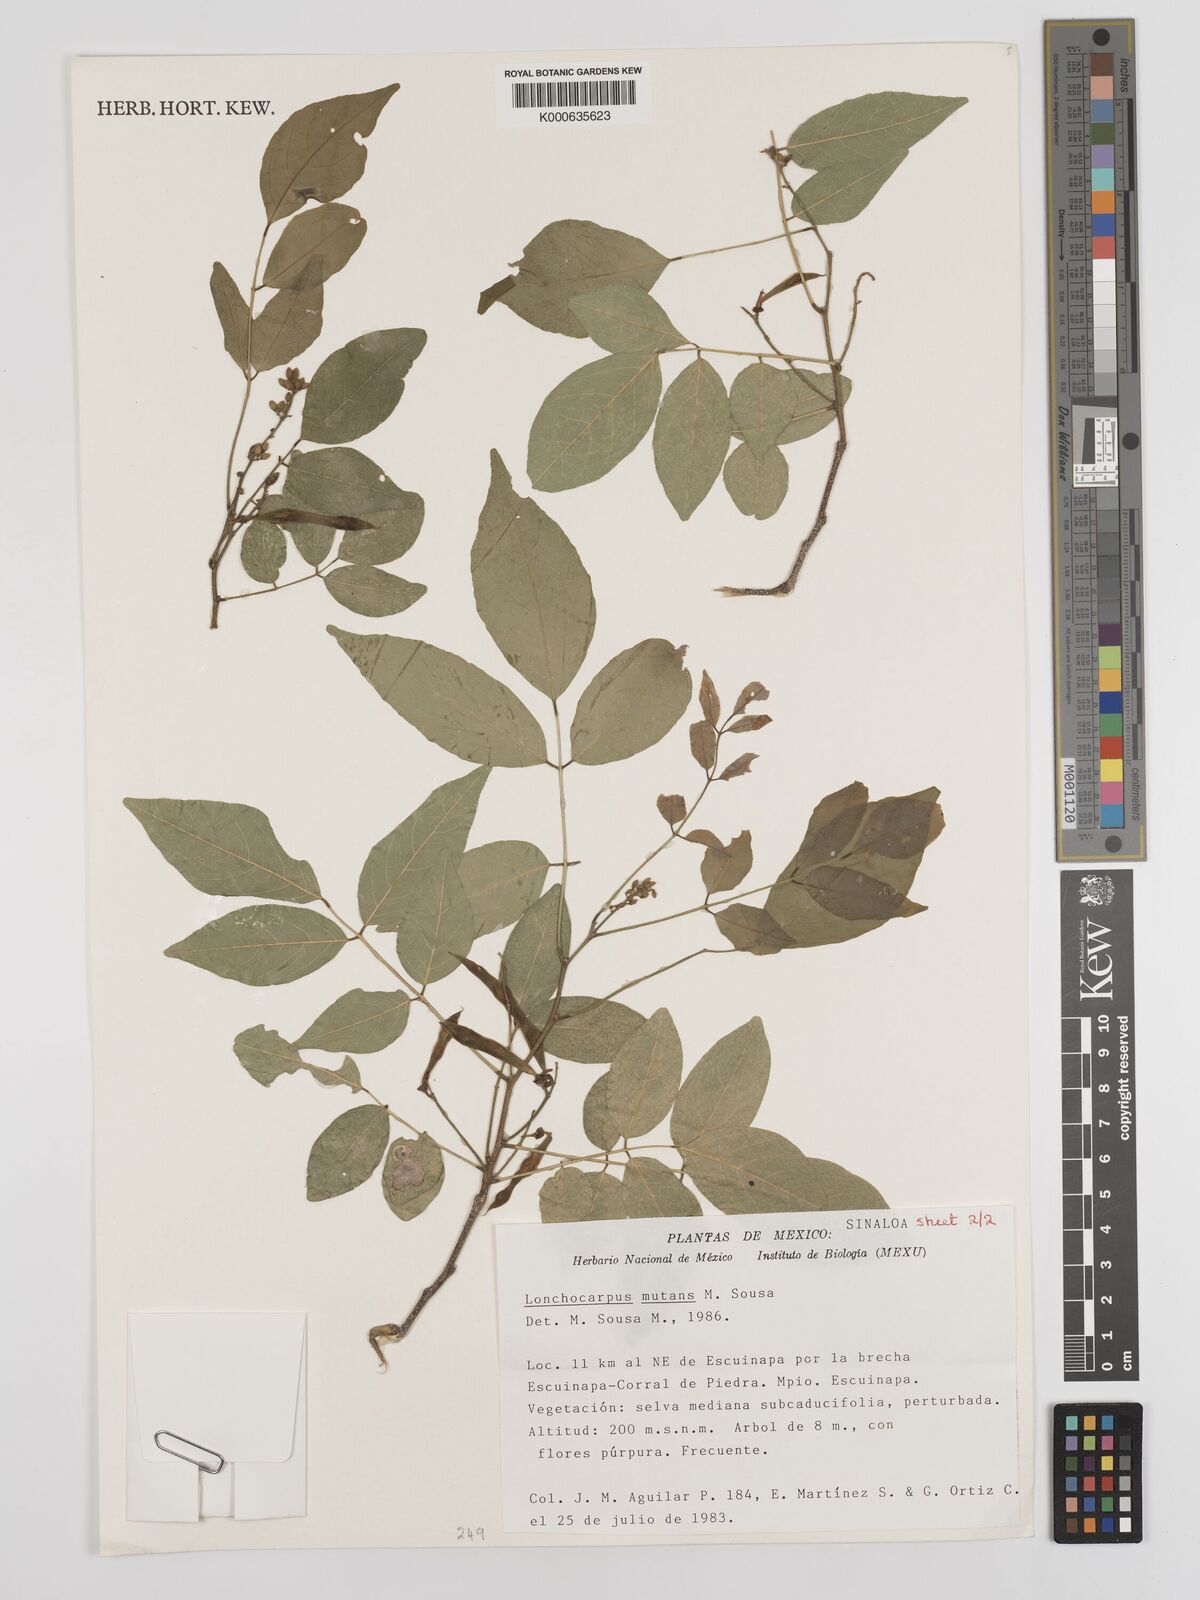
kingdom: Plantae
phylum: Tracheophyta
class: Magnoliopsida
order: Fabales
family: Fabaceae
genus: Lonchocarpus
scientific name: Lonchocarpus mutans
